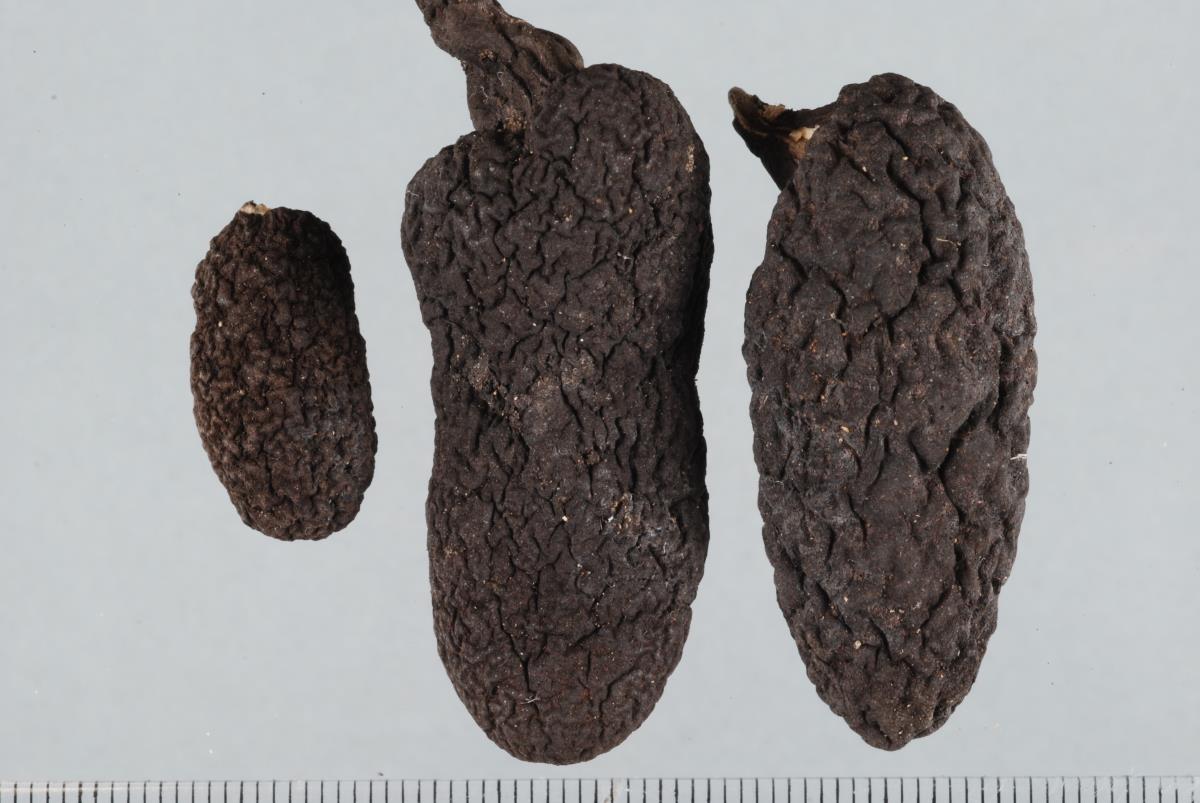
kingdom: Fungi
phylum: Ascomycota
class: Sordariomycetes
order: Xylariales
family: Xylariaceae
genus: Xylaria
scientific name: Xylaria schweinitzii
